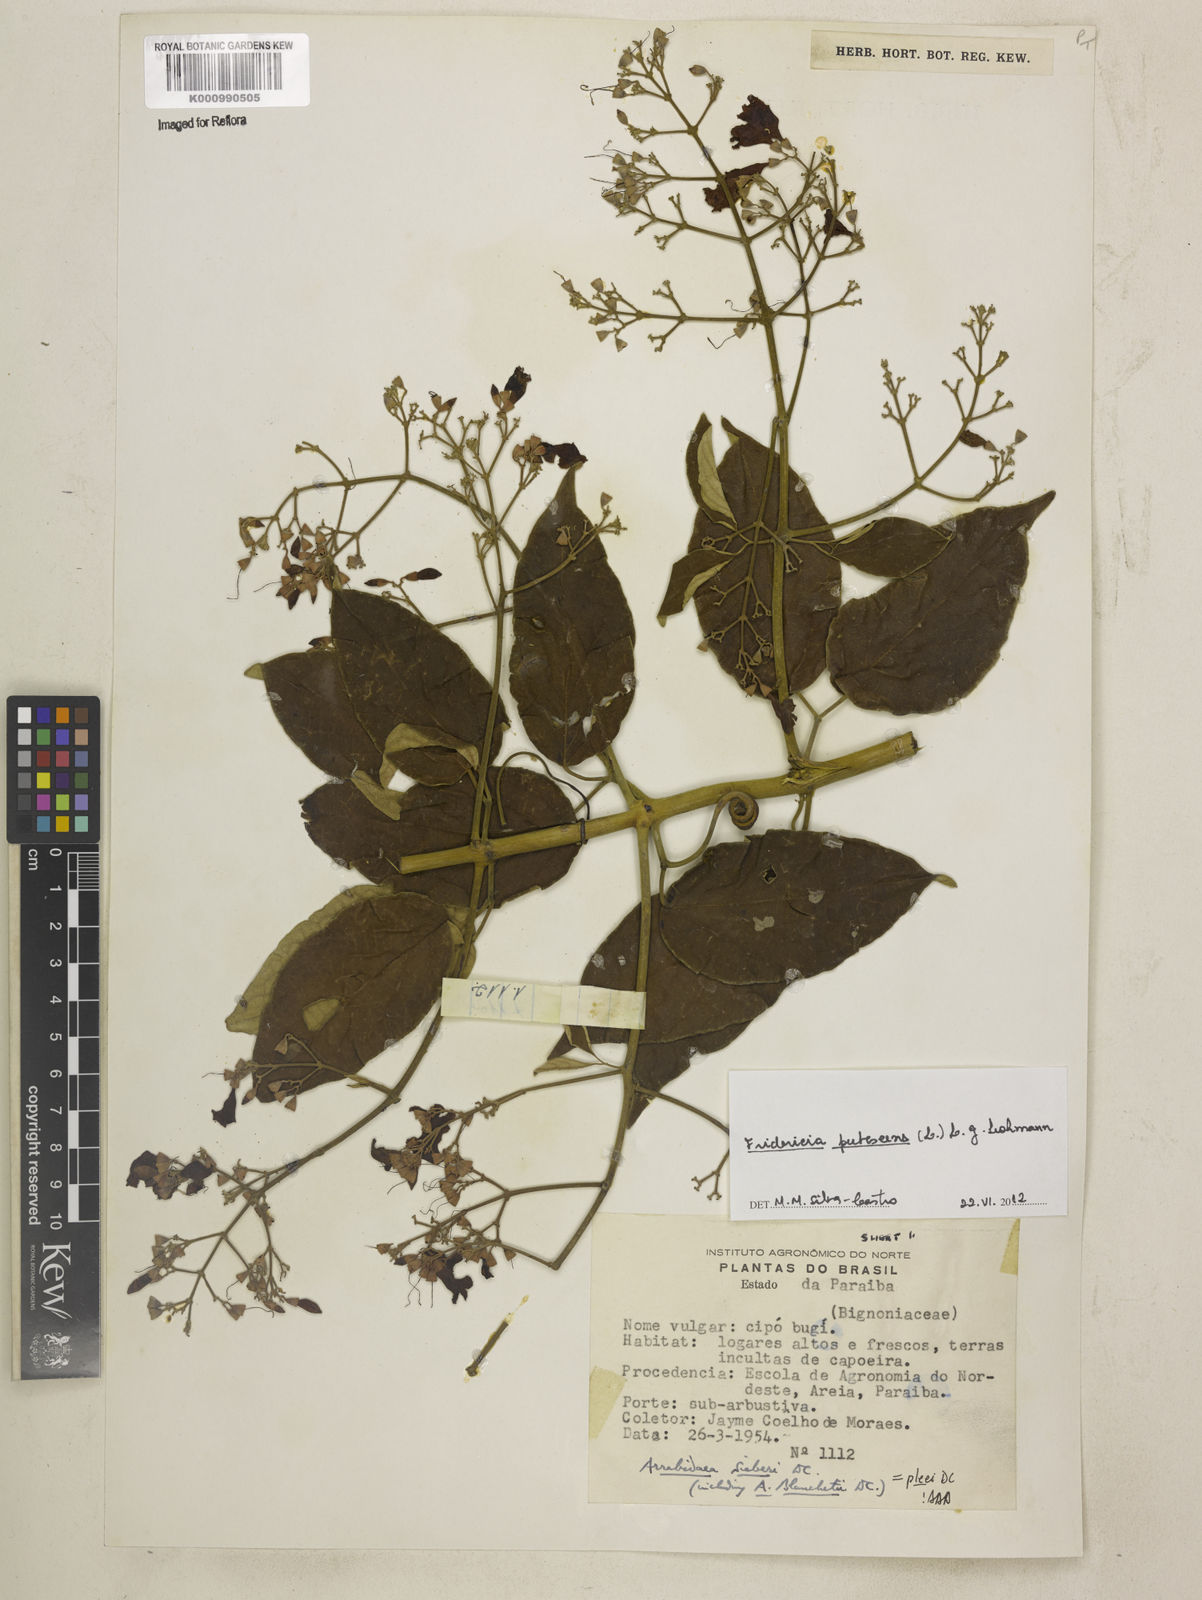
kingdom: Plantae
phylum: Tracheophyta
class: Magnoliopsida
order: Lamiales
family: Bignoniaceae
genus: Fridericia
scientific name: Fridericia pubescens
